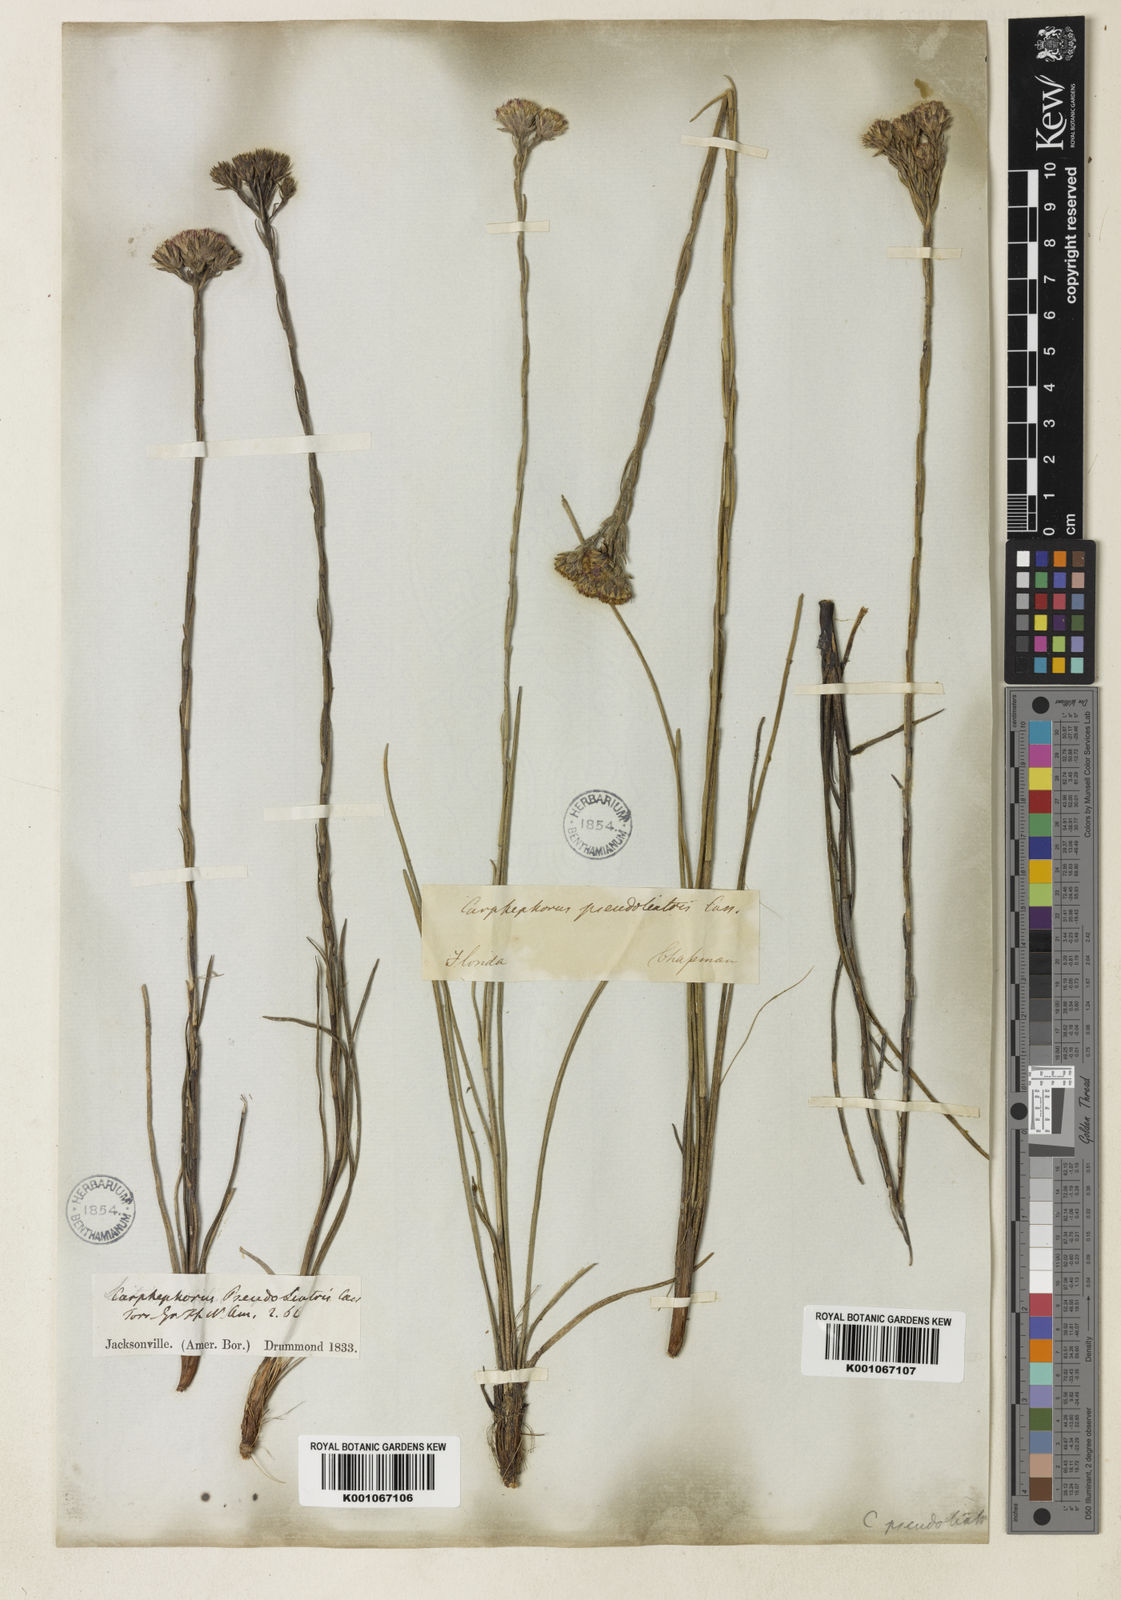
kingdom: Plantae
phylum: Tracheophyta
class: Magnoliopsida
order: Asterales
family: Asteraceae
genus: Carphephorus
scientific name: Carphephorus pseudoliatris
